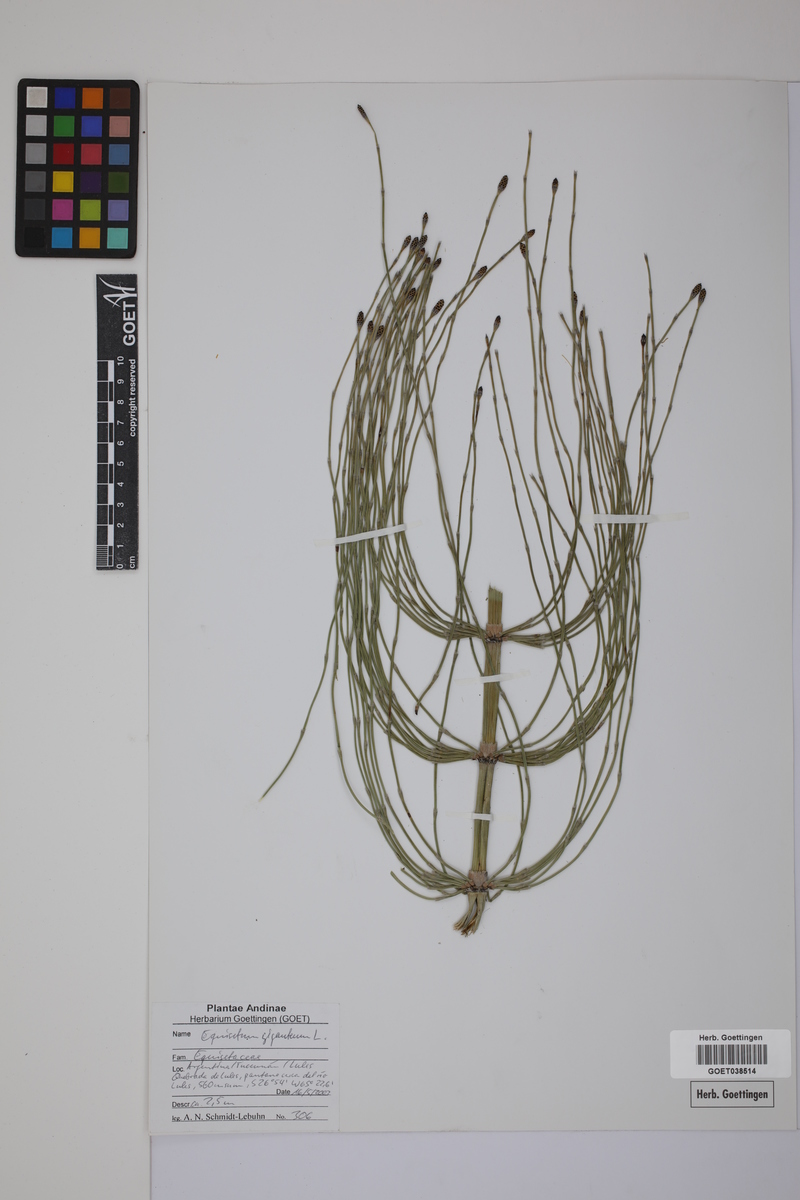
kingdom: Plantae
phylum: Tracheophyta
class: Polypodiopsida
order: Equisetales
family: Equisetaceae
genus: Equisetum
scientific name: Equisetum giganteum
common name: Giant horsetail
